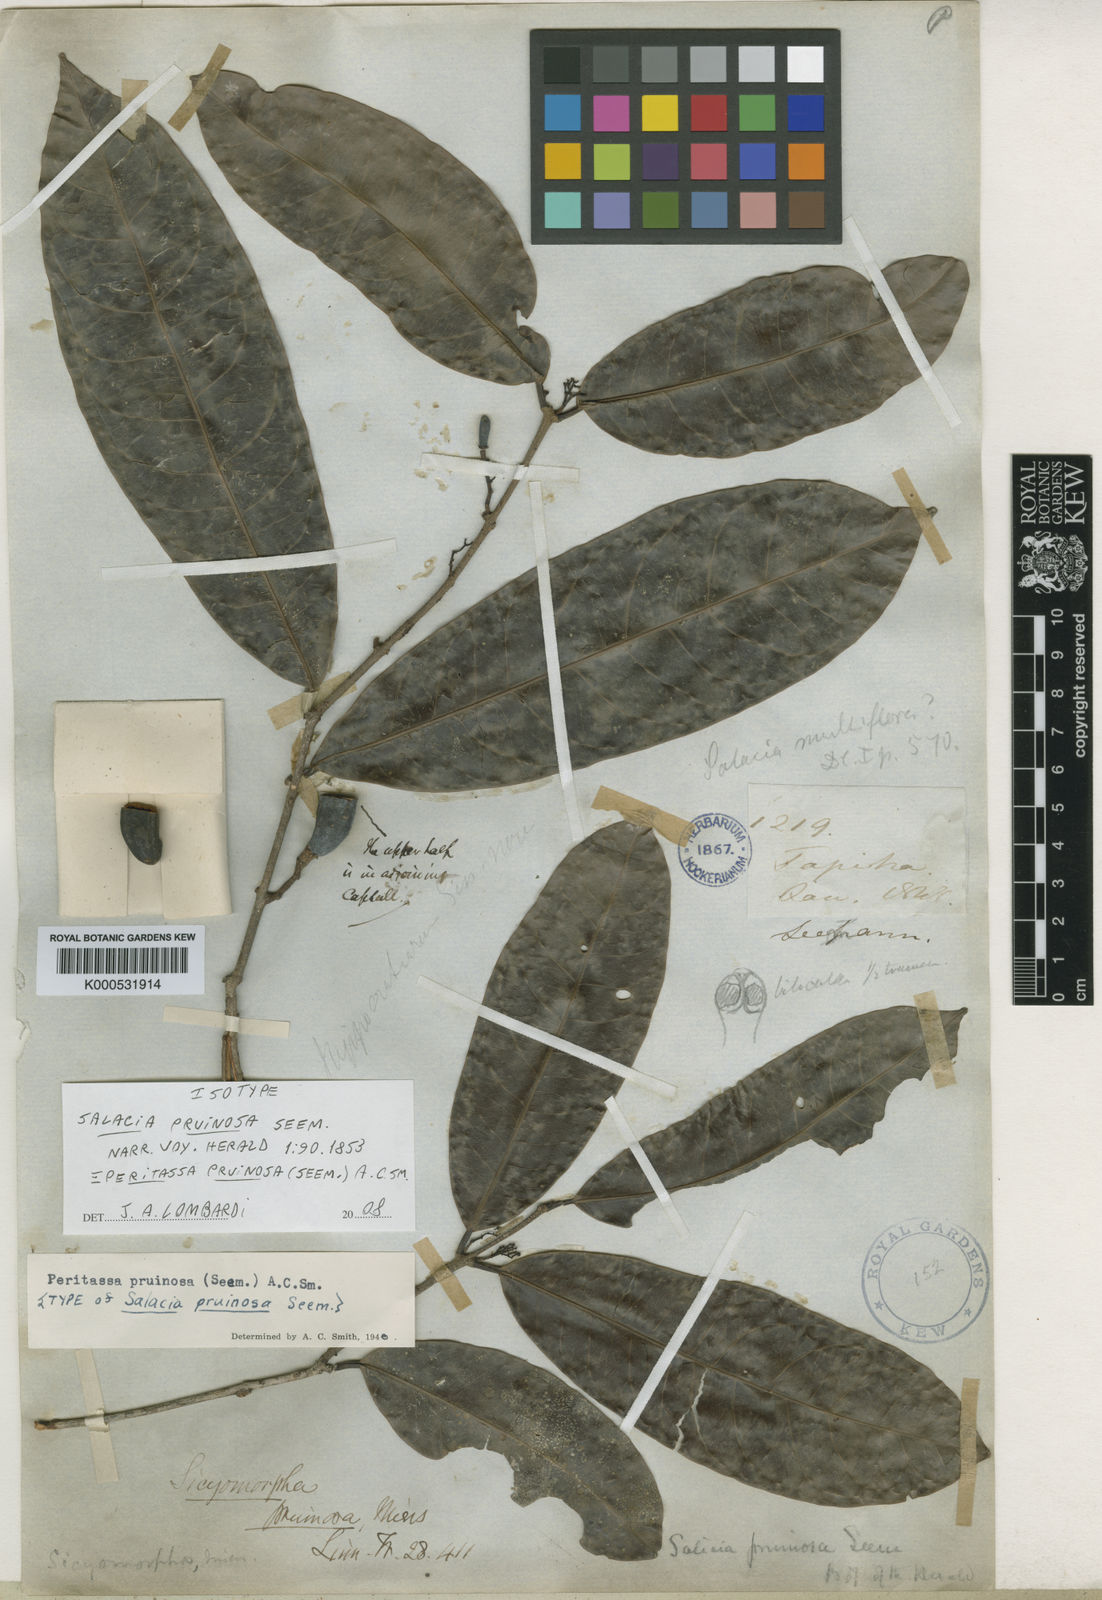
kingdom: Plantae
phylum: Tracheophyta
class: Magnoliopsida
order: Celastrales
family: Celastraceae
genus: Peritassa
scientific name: Peritassa pruinosa
